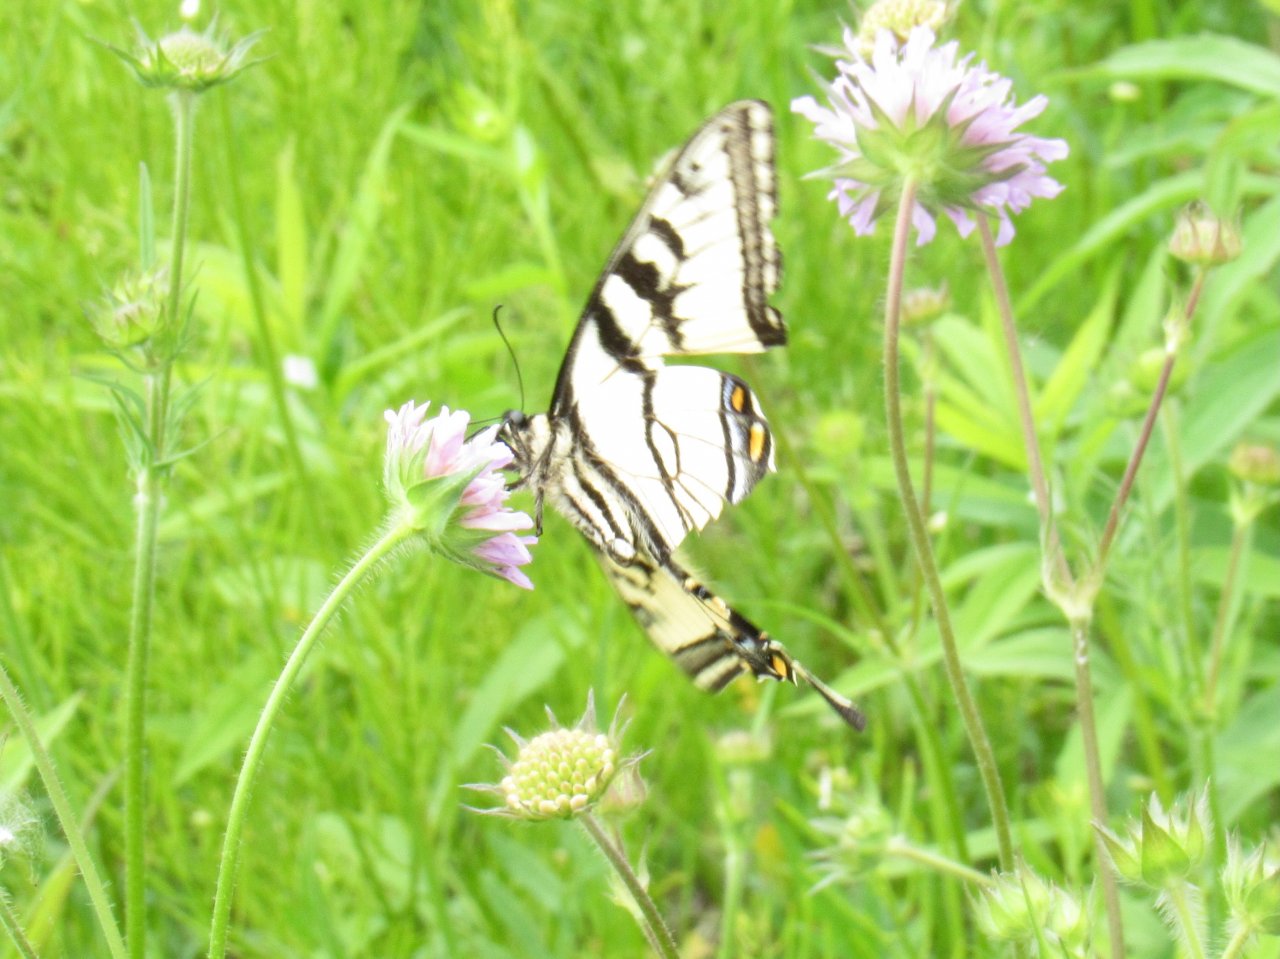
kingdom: Animalia
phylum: Arthropoda
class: Insecta
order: Lepidoptera
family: Papilionidae
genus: Pterourus
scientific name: Pterourus canadensis
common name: Canadian Tiger Swallowtail
